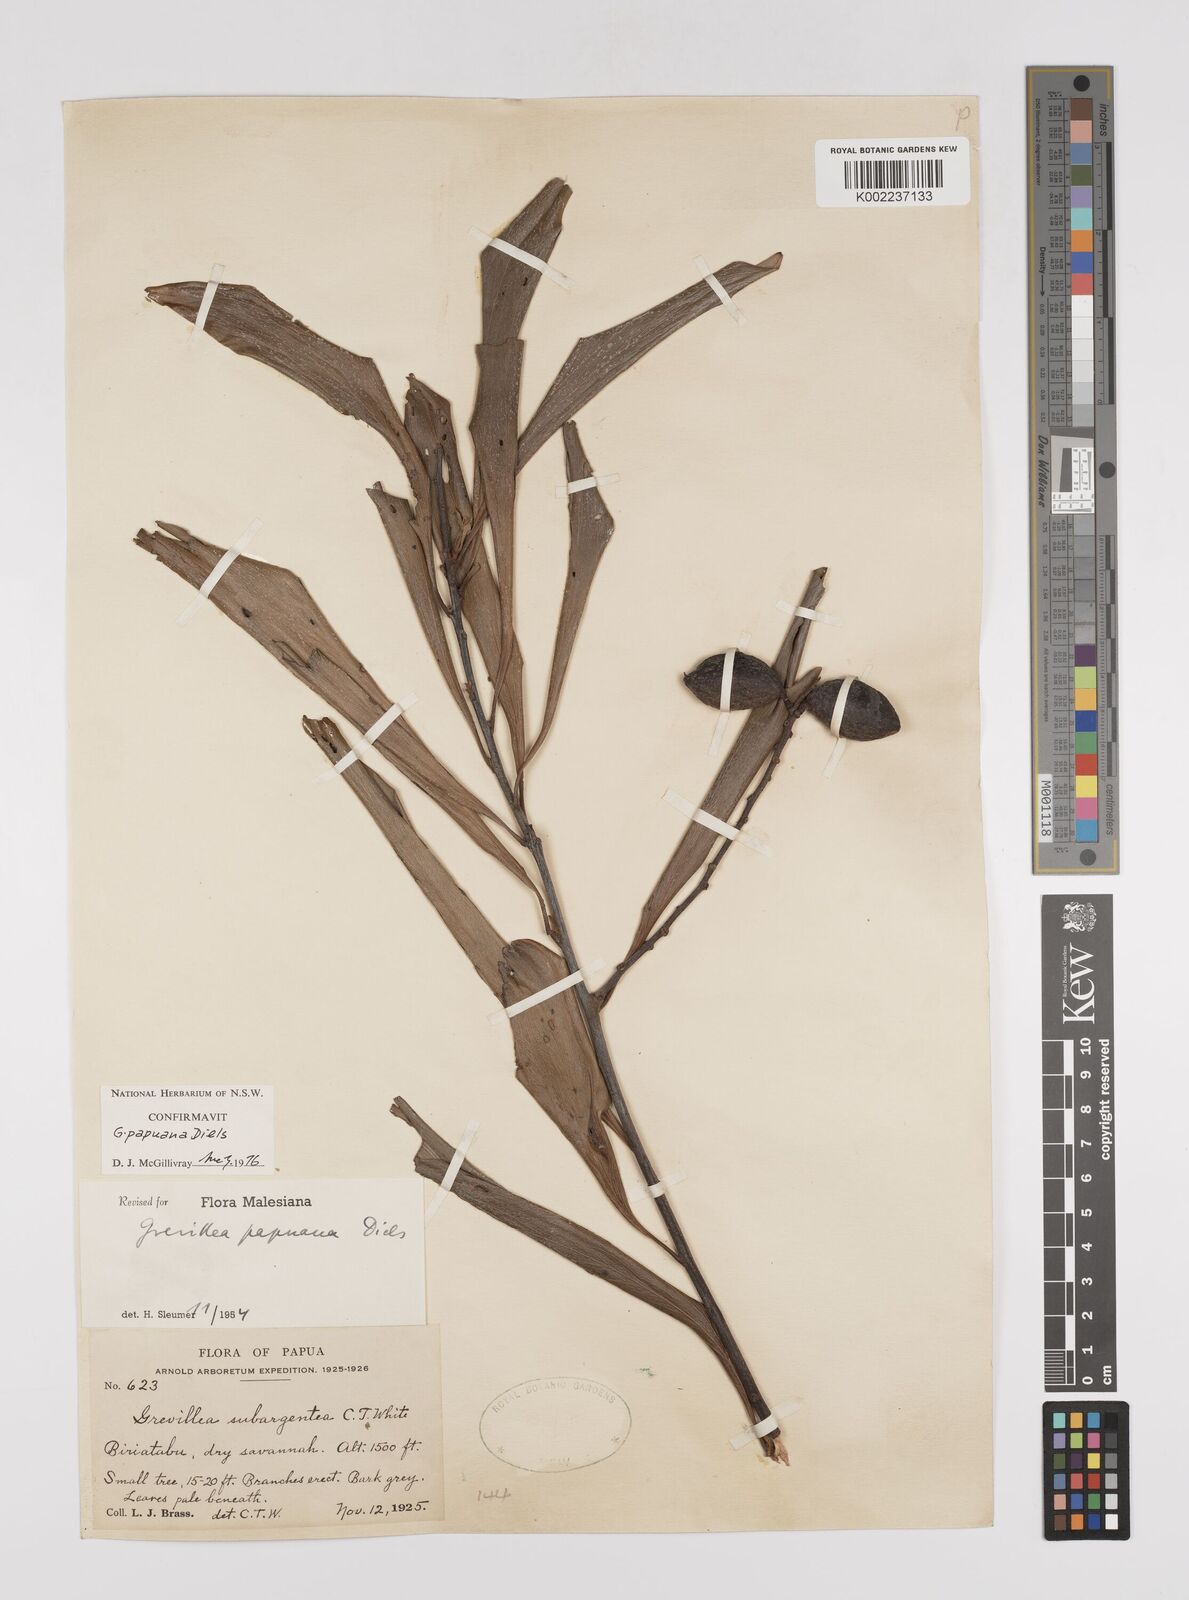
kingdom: Plantae
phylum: Tracheophyta
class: Magnoliopsida
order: Proteales
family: Proteaceae
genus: Grevillea
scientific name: Grevillea papuana
